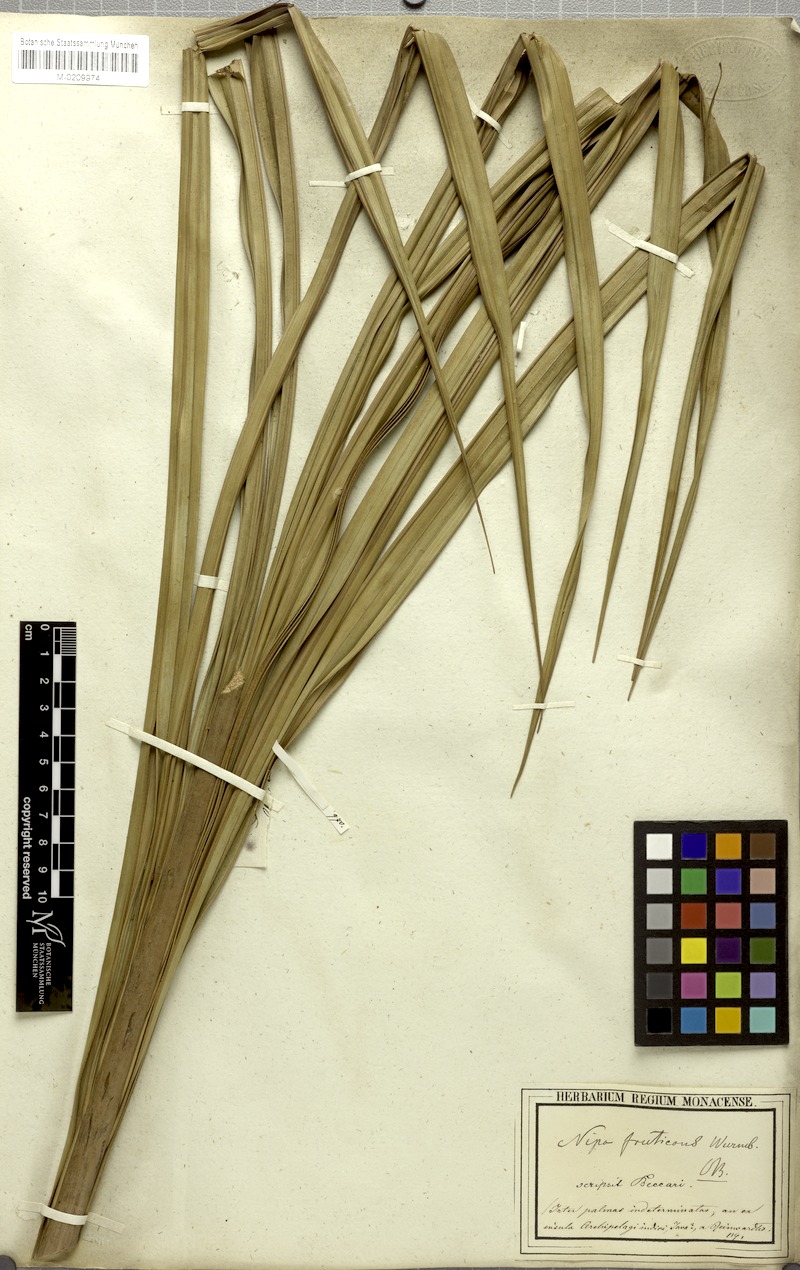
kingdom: Plantae
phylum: Tracheophyta
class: Liliopsida
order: Arecales
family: Arecaceae
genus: Nypa
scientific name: Nypa fruticans
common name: Mangrove palm
